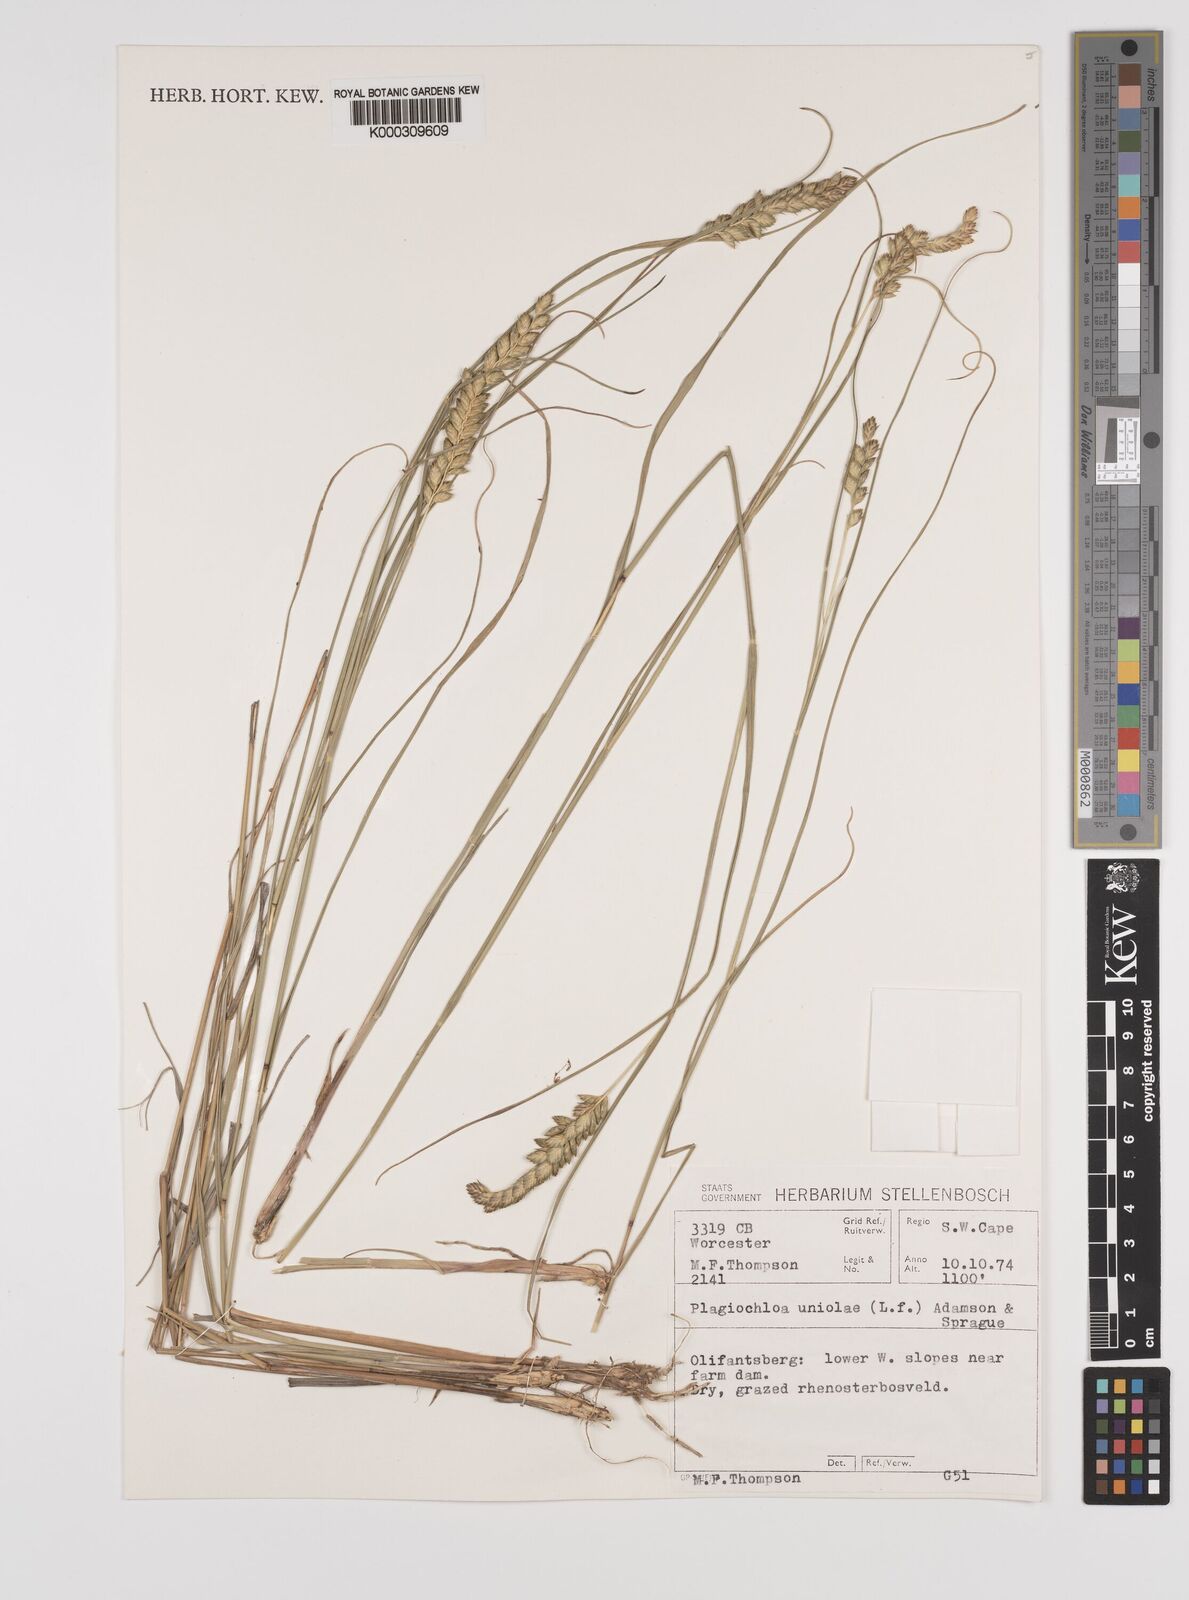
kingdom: Plantae
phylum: Tracheophyta
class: Liliopsida
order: Poales
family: Poaceae
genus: Tribolium
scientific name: Tribolium uniolae
